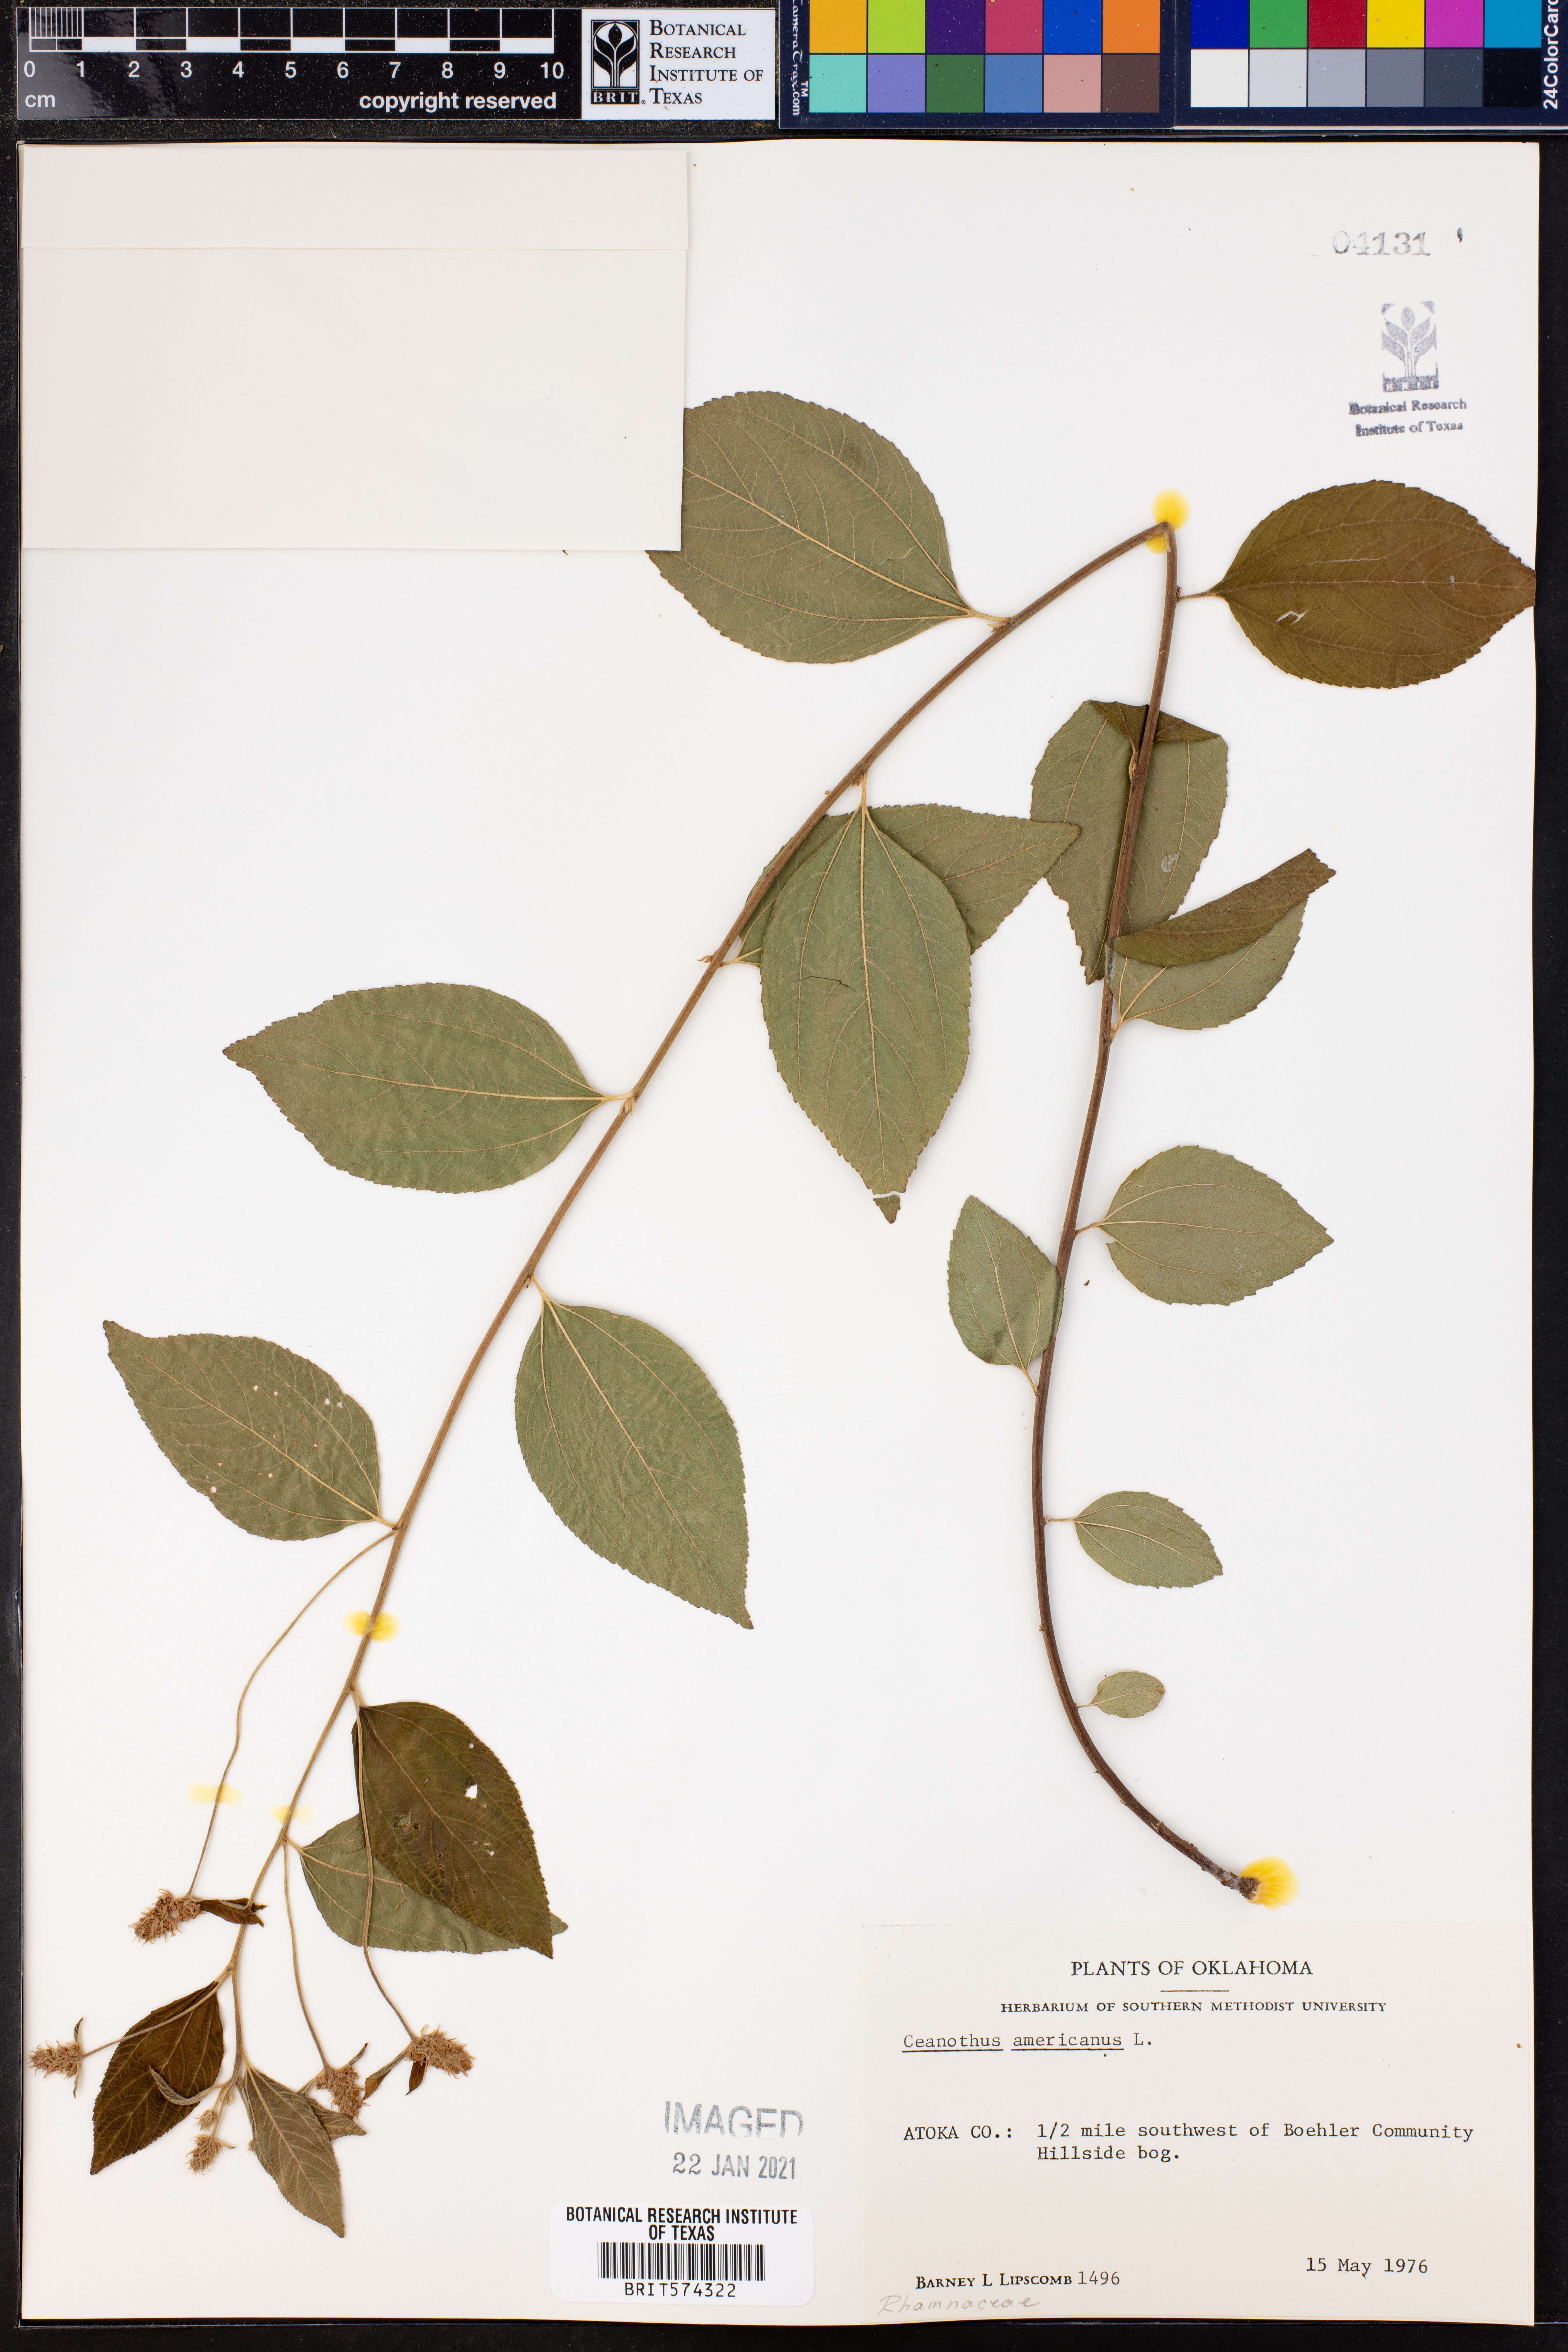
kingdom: Plantae
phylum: Tracheophyta
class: Magnoliopsida
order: Rosales
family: Rhamnaceae
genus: Ceanothus
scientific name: Ceanothus americanus
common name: Redroot
